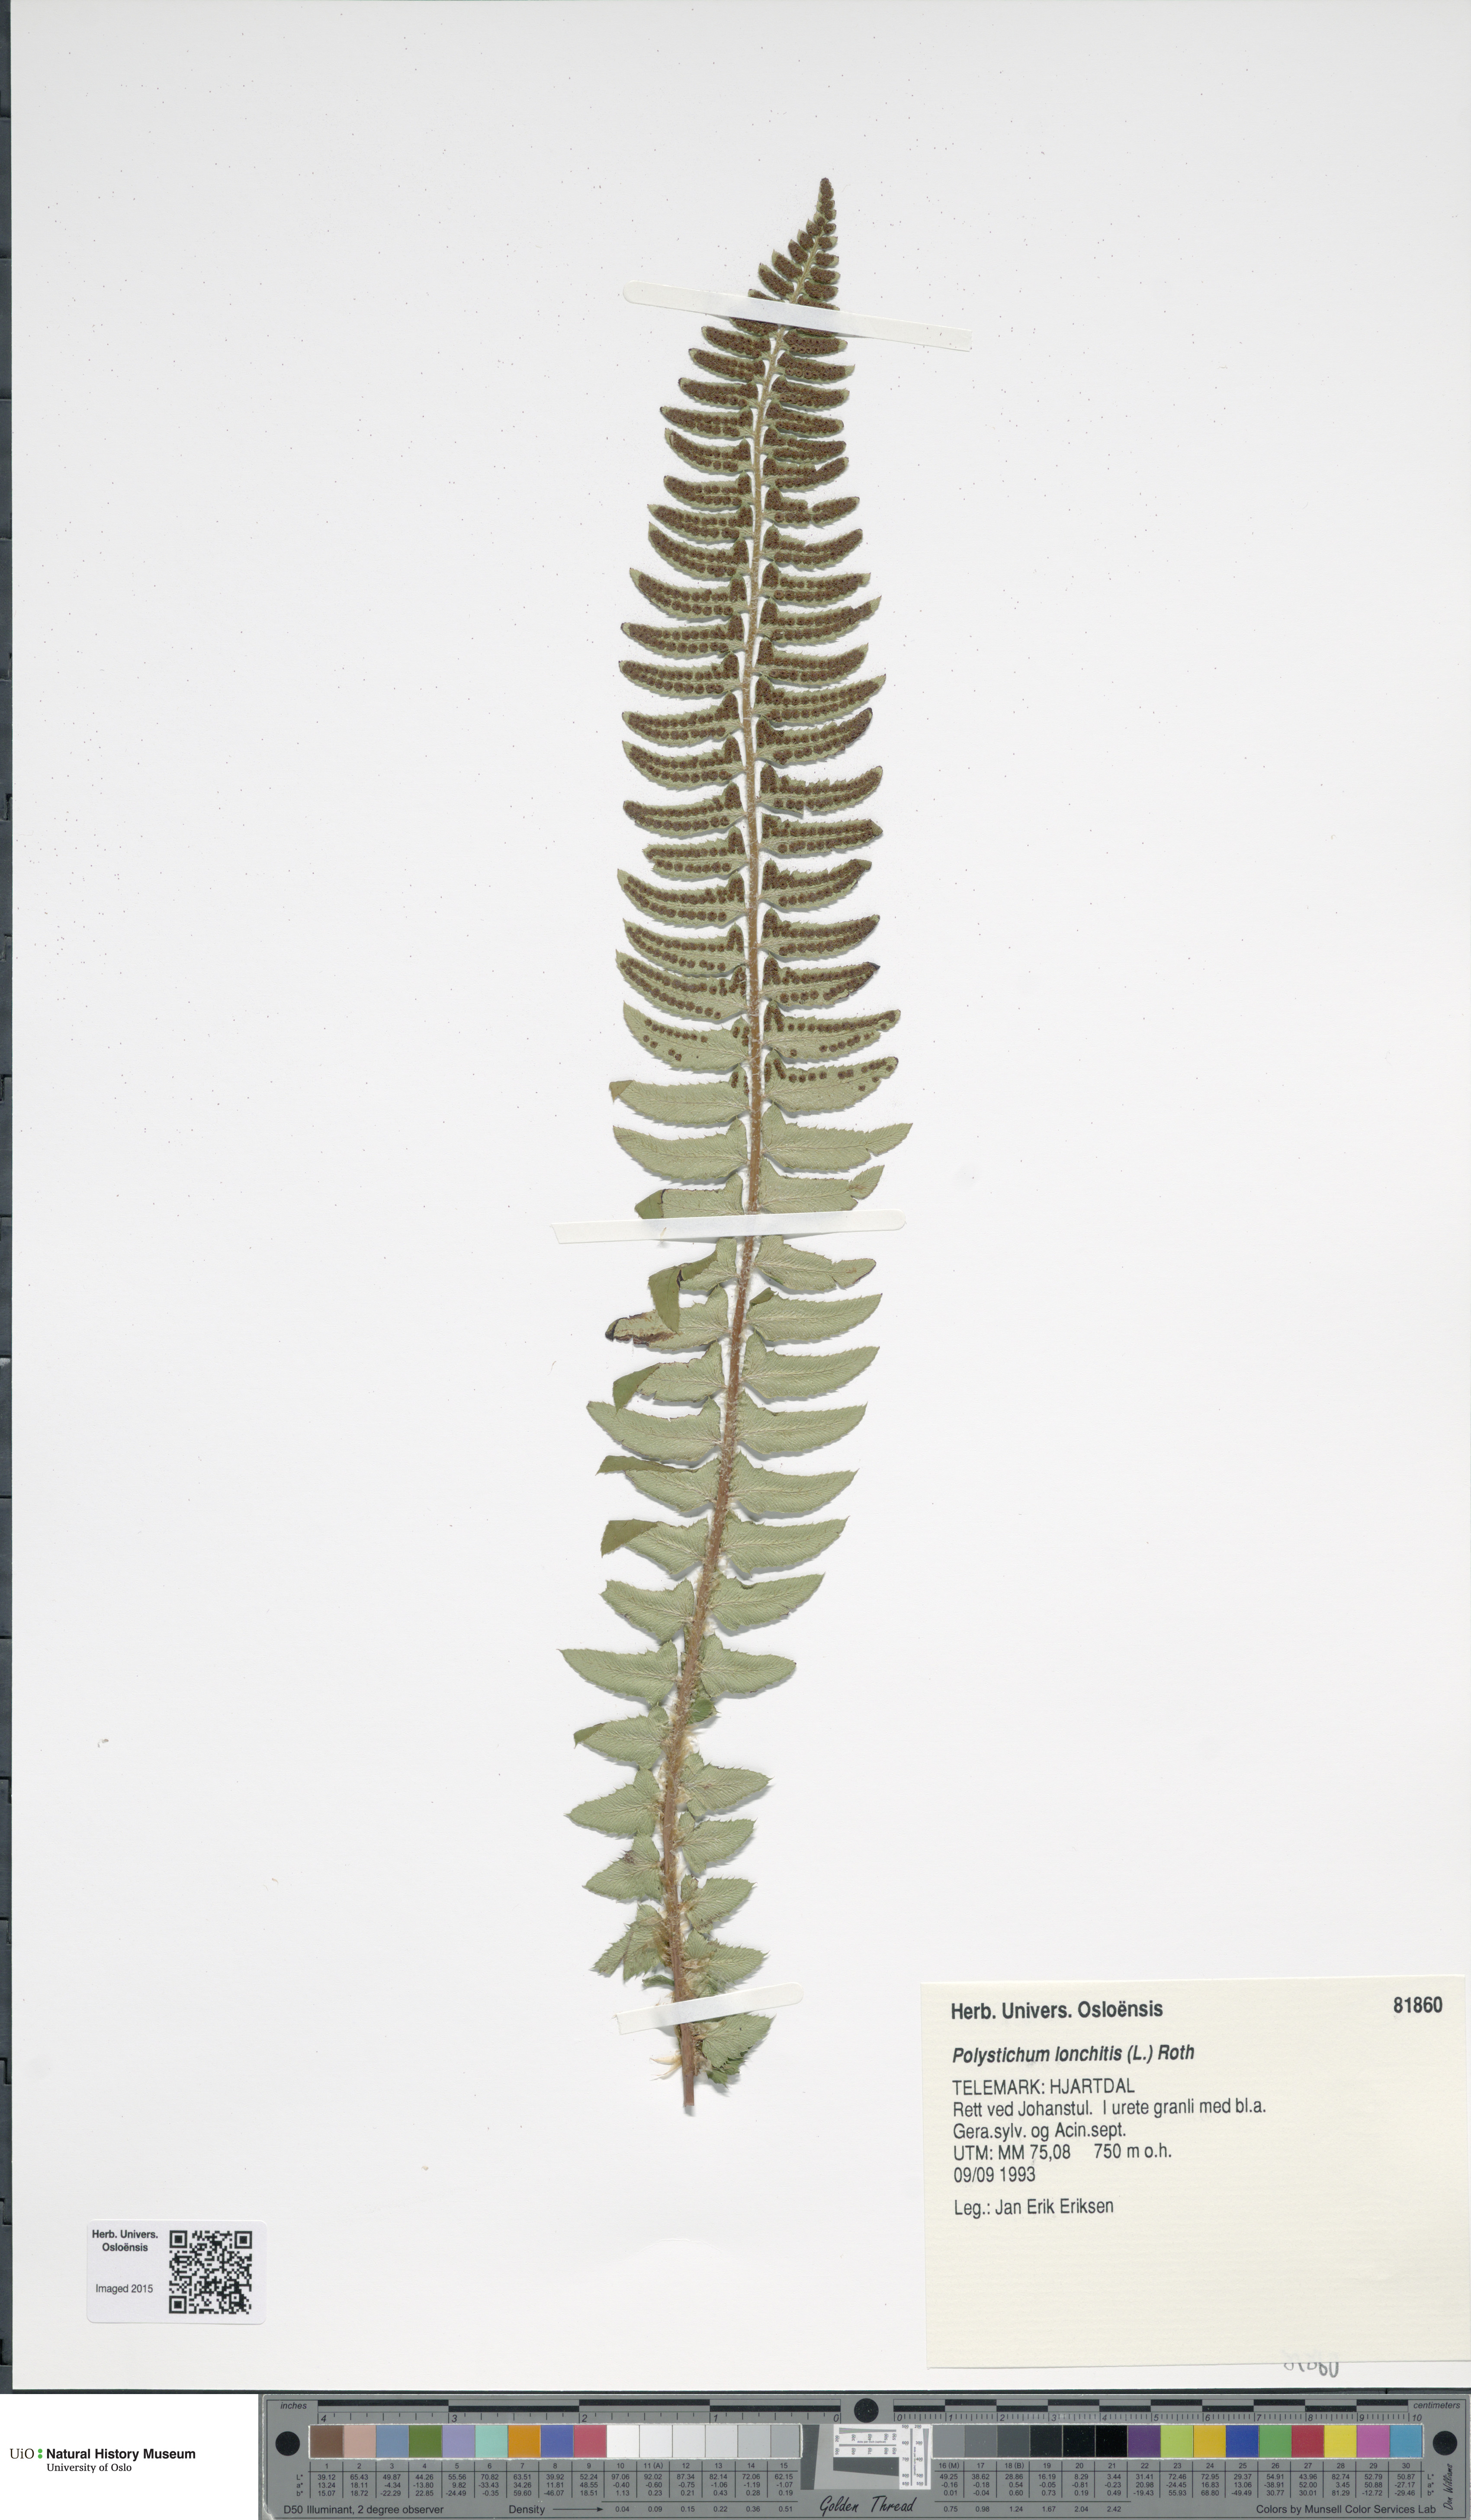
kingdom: Plantae
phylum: Tracheophyta
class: Polypodiopsida
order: Polypodiales
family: Dryopteridaceae
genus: Polystichum
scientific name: Polystichum lonchitis
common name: Holly fern
